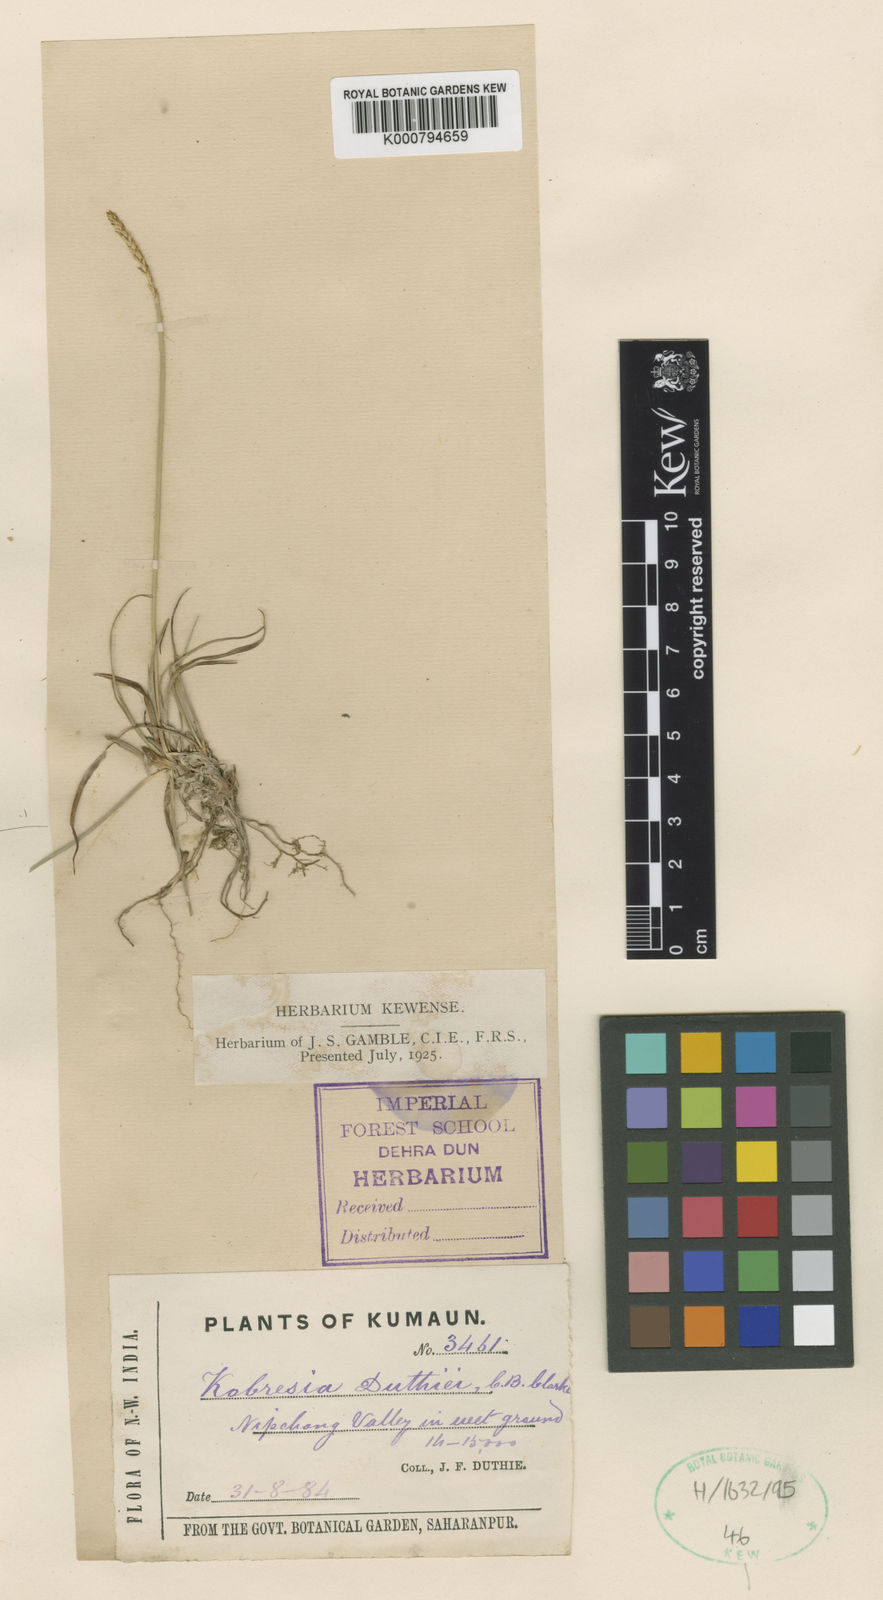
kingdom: Plantae
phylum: Tracheophyta
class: Liliopsida
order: Poales
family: Cyperaceae
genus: Carex
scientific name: Carex clavispica
